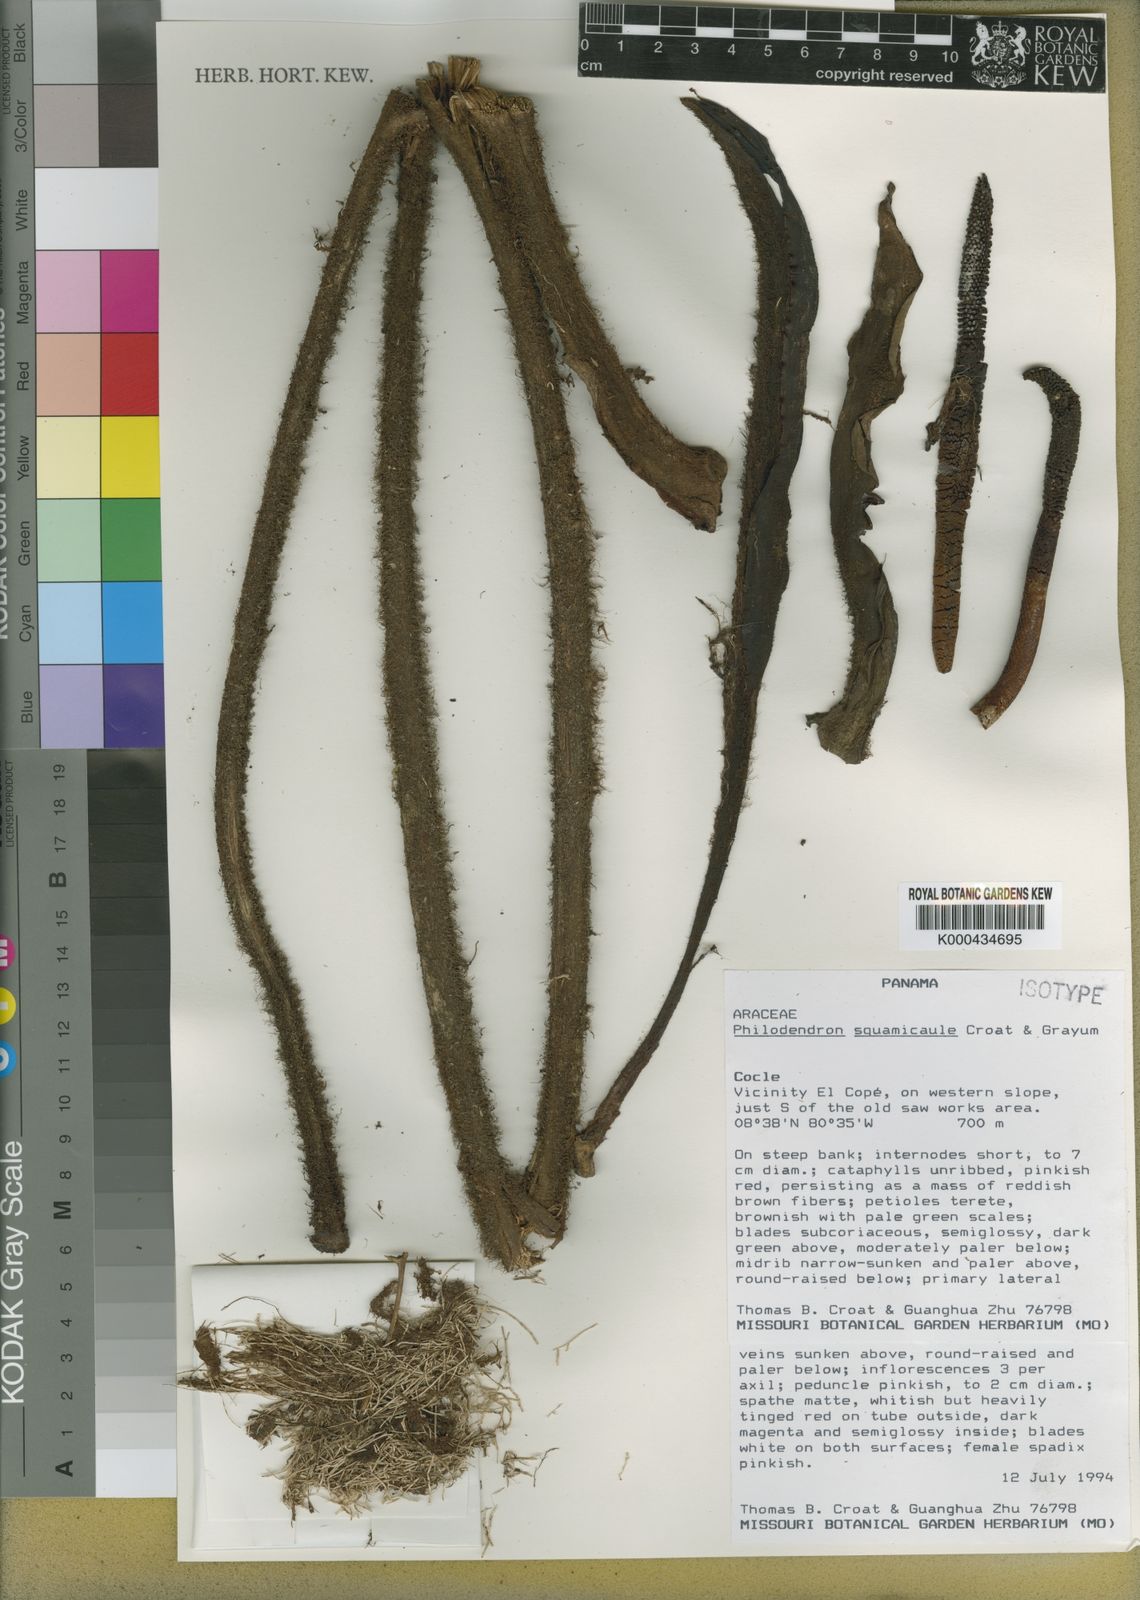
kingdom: Plantae
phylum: Tracheophyta
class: Liliopsida
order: Alismatales
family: Araceae
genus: Philodendron
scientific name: Philodendron squamicaule
